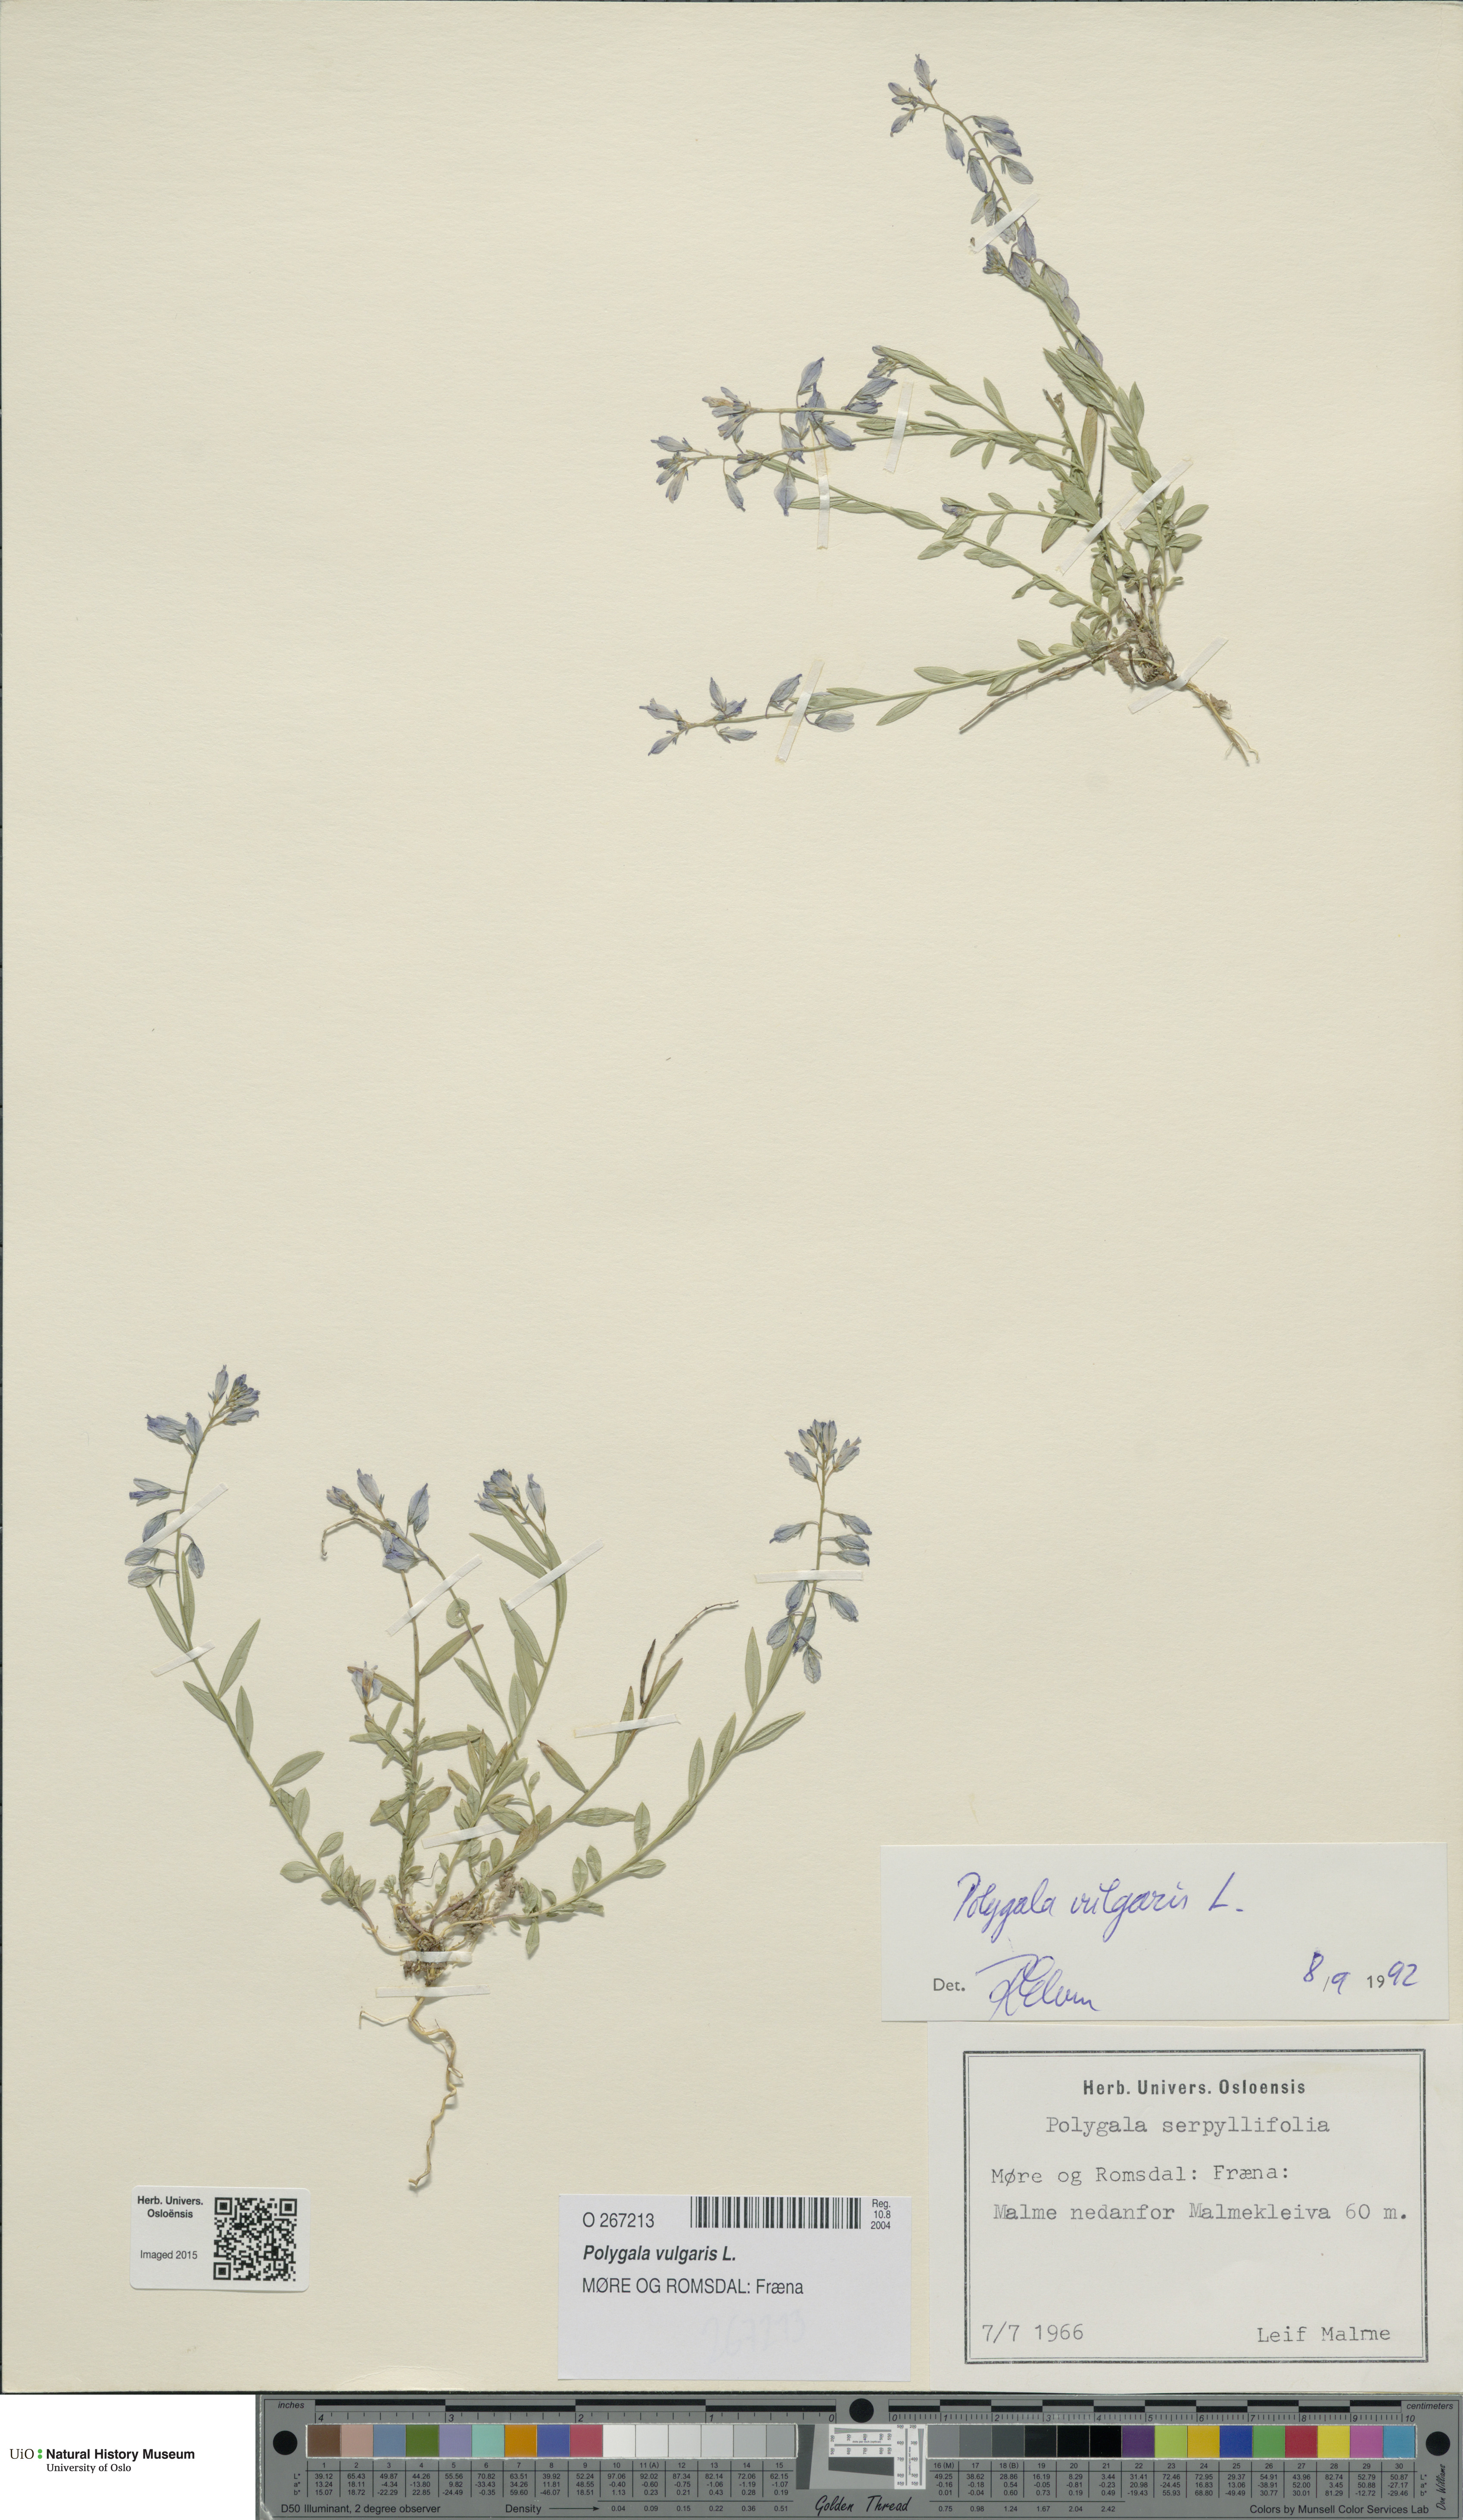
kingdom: Plantae
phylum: Tracheophyta
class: Magnoliopsida
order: Fabales
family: Polygalaceae
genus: Polygala
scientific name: Polygala vulgaris
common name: Common milkwort
